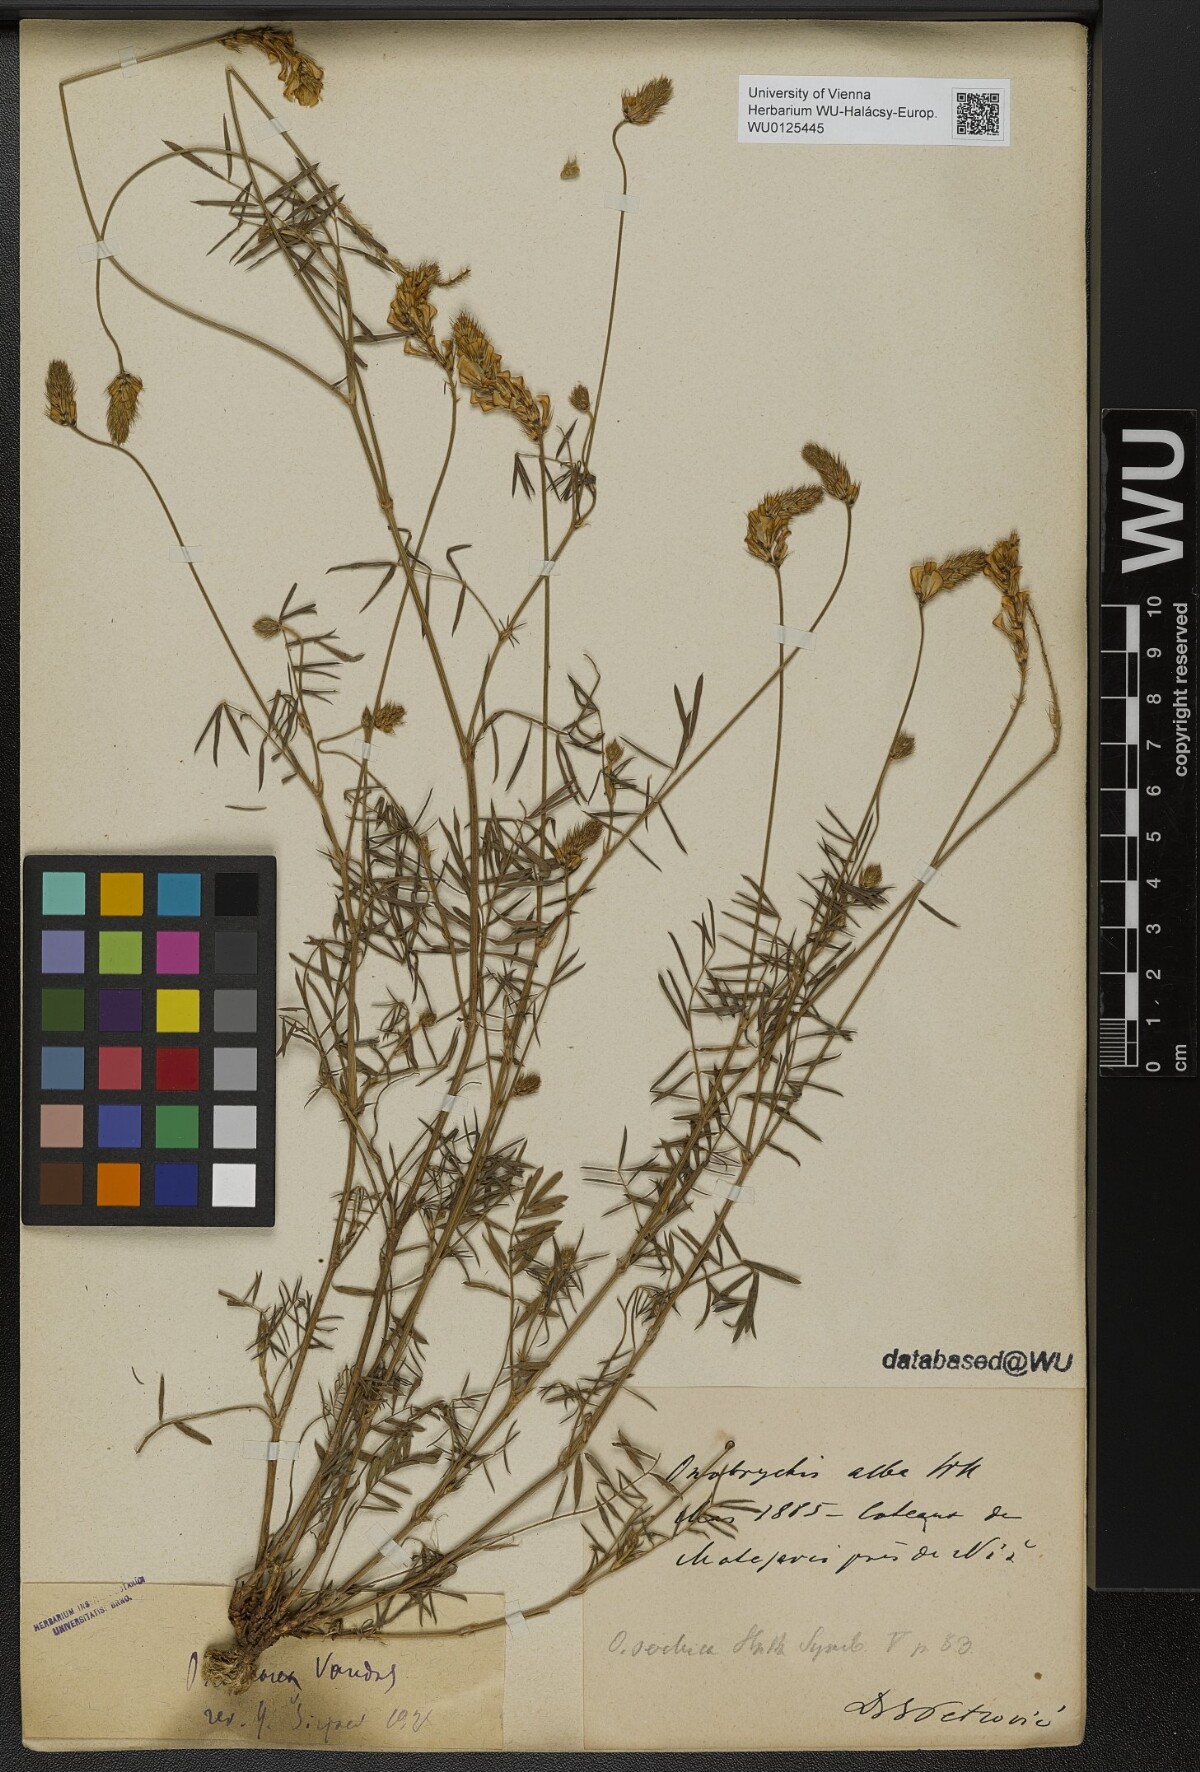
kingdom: Plantae
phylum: Tracheophyta
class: Magnoliopsida
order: Fabales
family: Fabaceae
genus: Onobrychis
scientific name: Onobrychis alba
